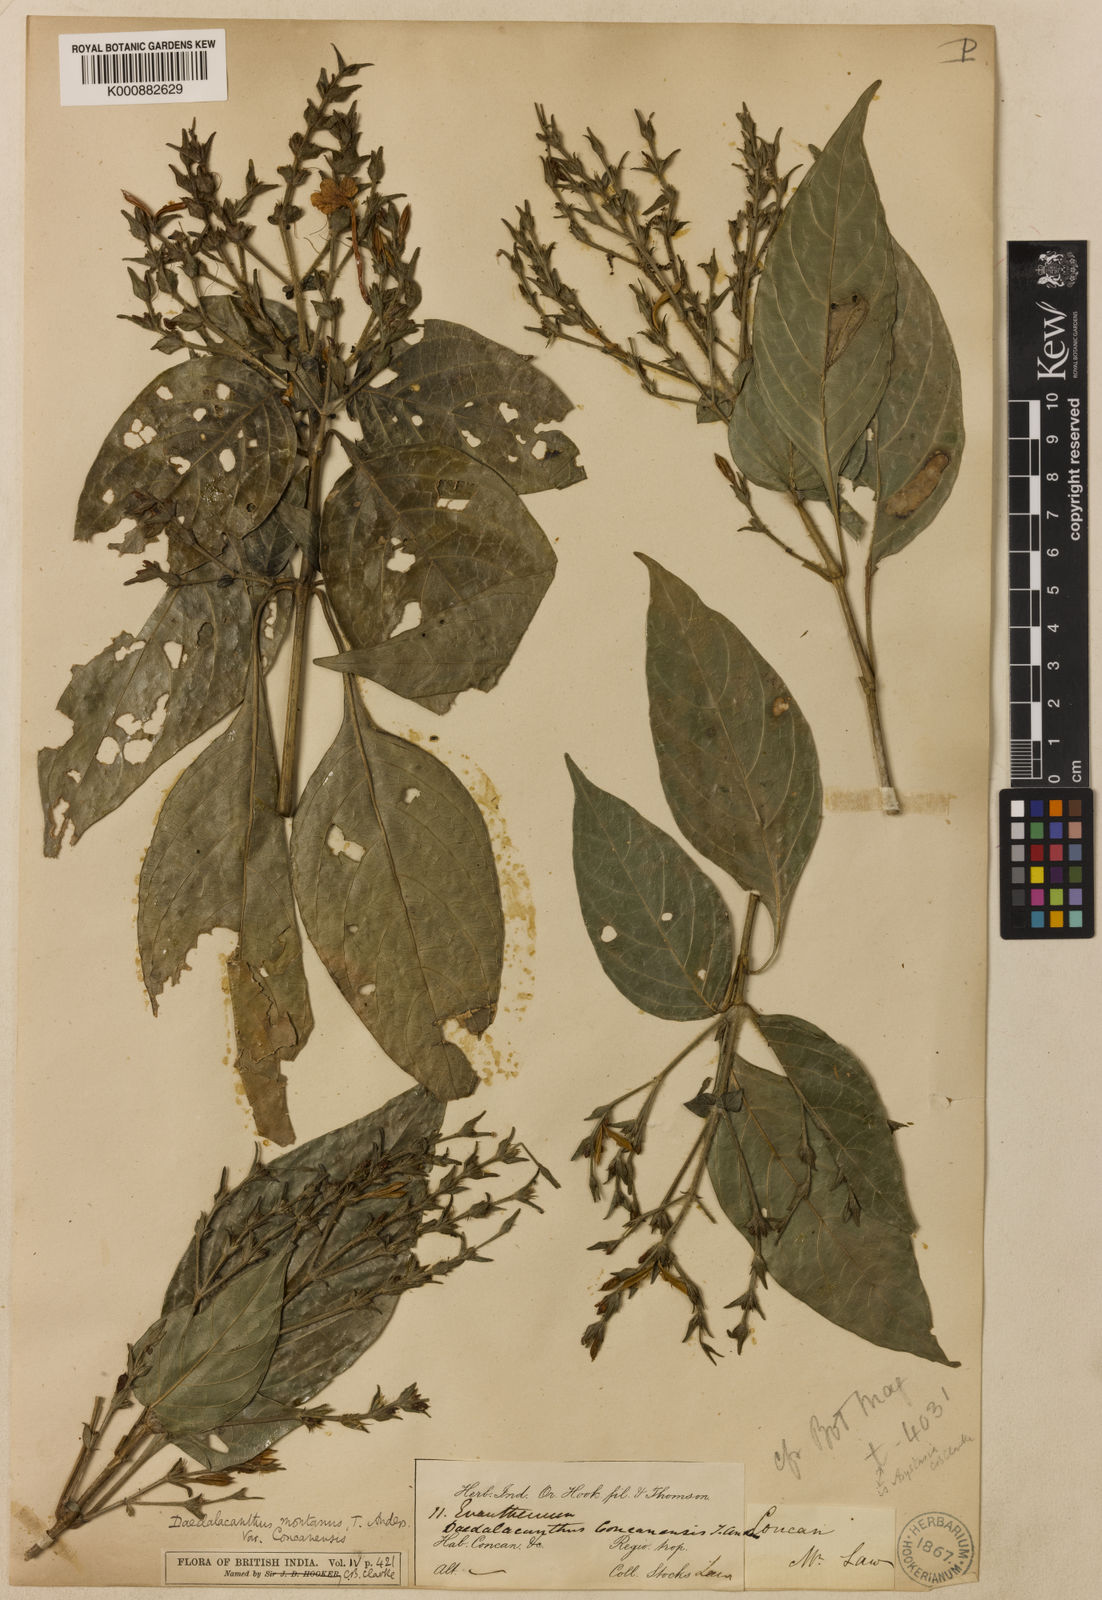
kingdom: Plantae
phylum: Tracheophyta
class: Magnoliopsida
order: Lamiales
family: Acanthaceae
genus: Eranthemum
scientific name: Eranthemum capense
